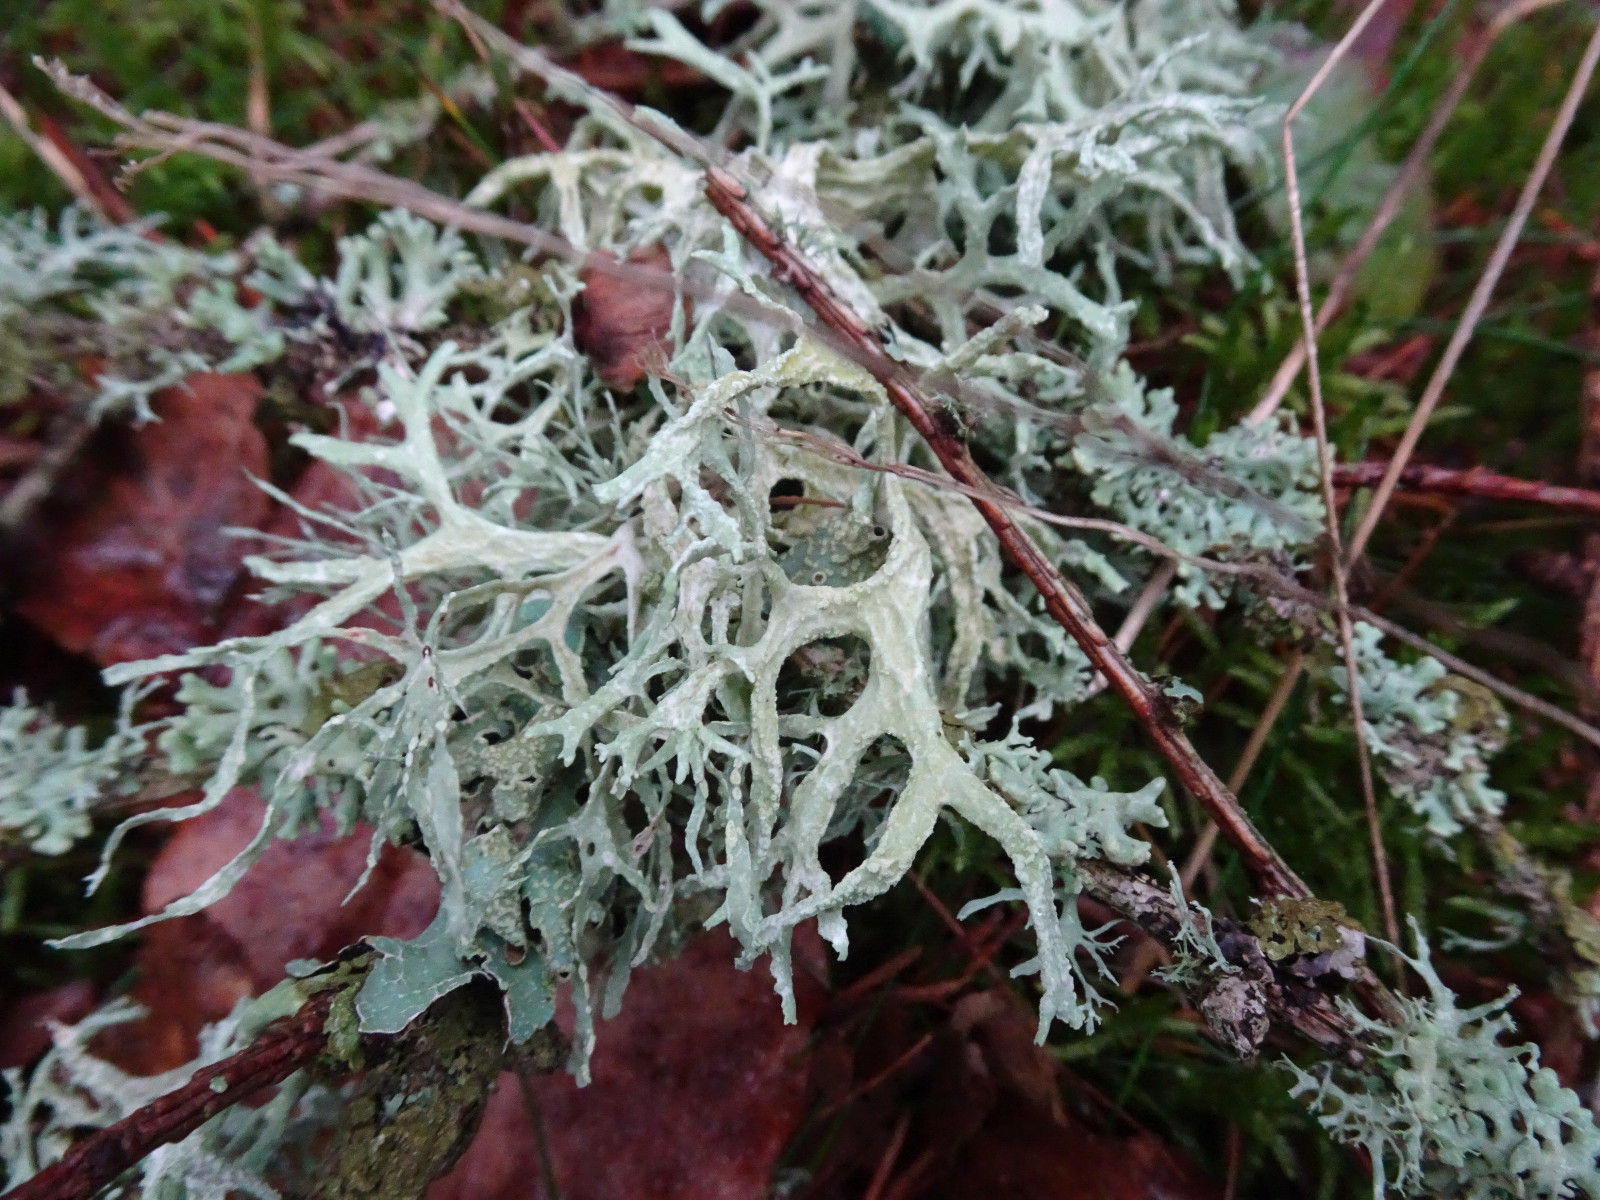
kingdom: Fungi
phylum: Ascomycota
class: Lecanoromycetes
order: Lecanorales
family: Parmeliaceae
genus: Evernia
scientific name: Evernia prunastri
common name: almindelig slåenlav
